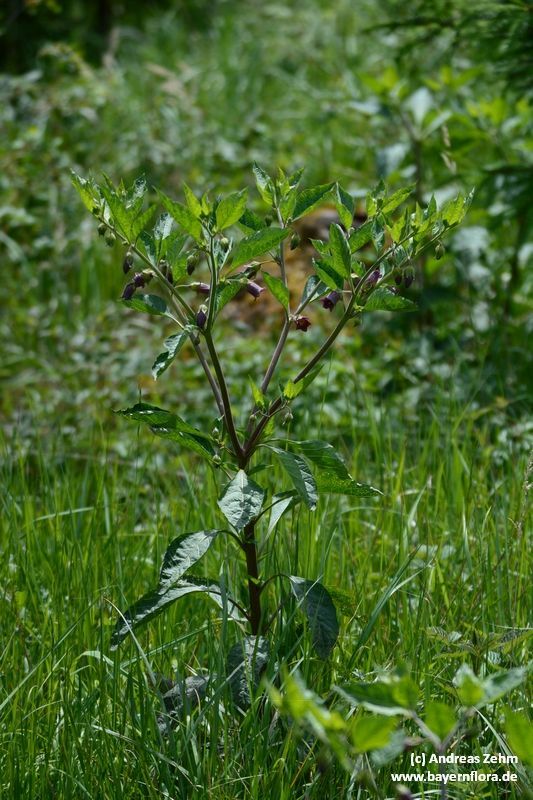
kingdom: Plantae
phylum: Tracheophyta
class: Magnoliopsida
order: Solanales
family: Solanaceae
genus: Atropa
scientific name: Atropa belladonna
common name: Deadly nightshade
